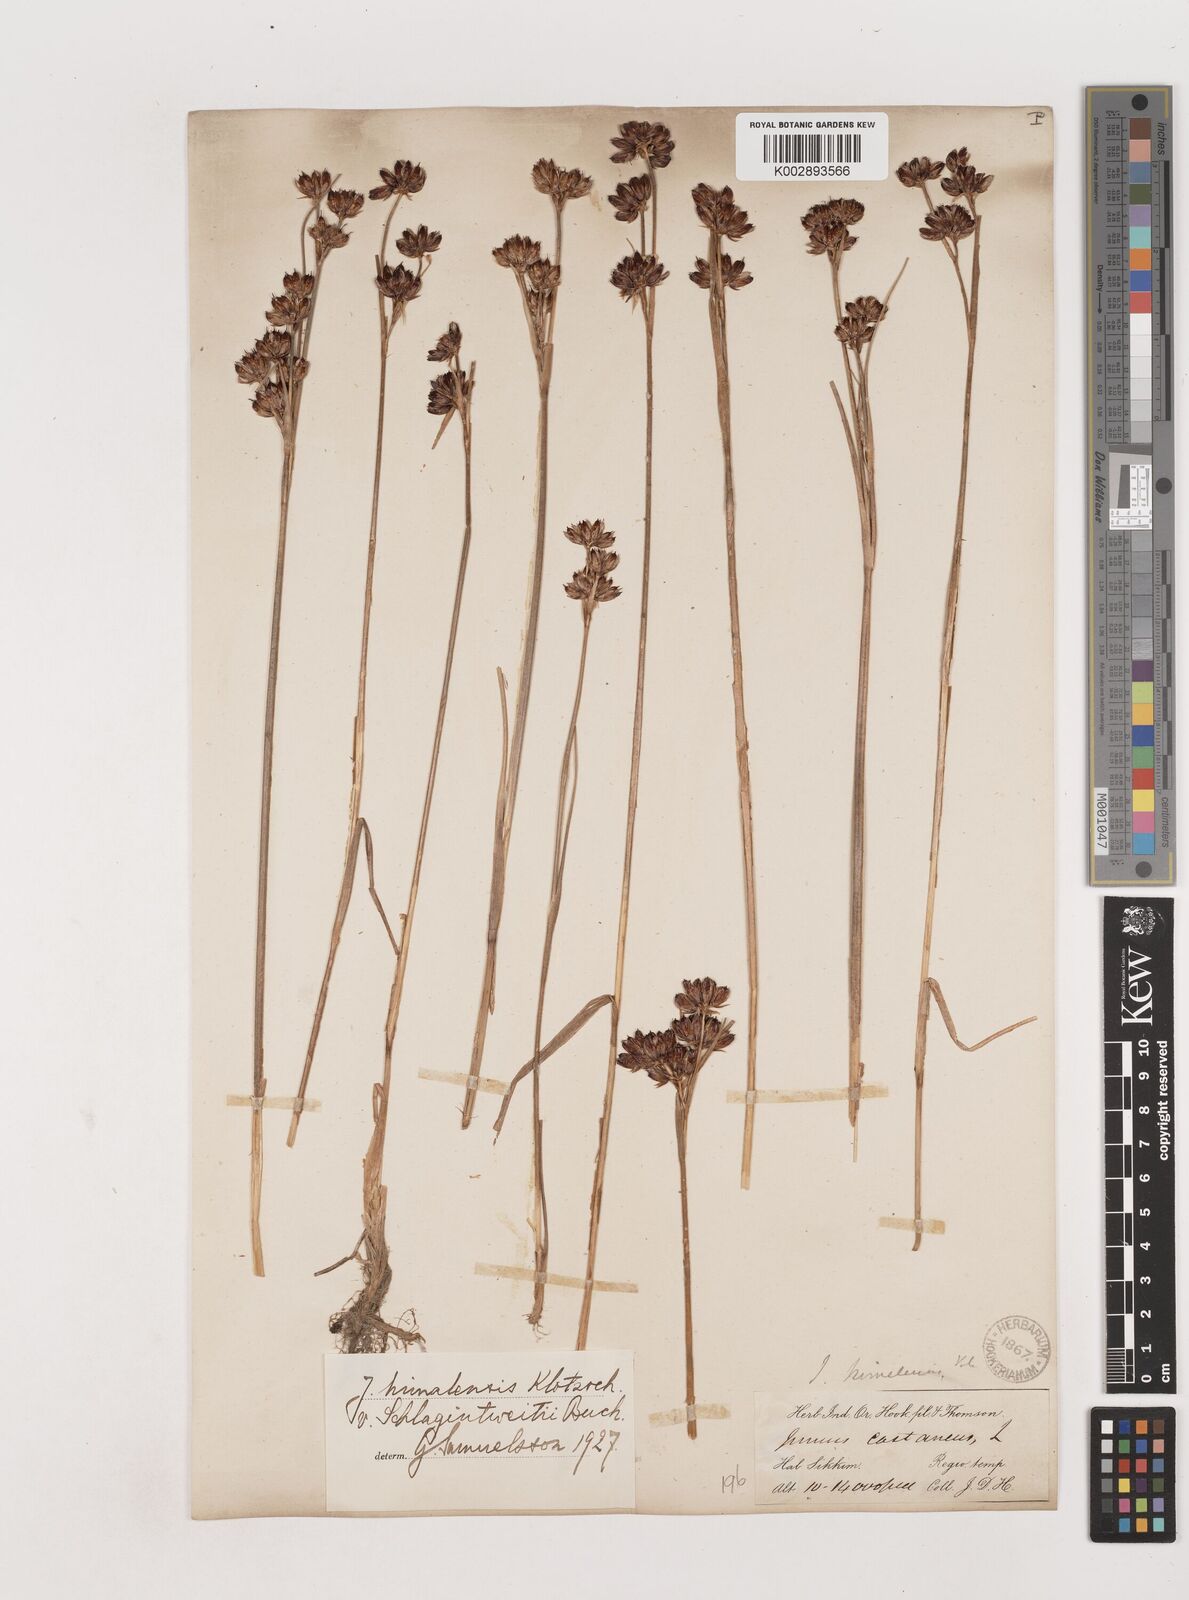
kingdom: Plantae
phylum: Tracheophyta
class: Liliopsida
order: Poales
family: Juncaceae
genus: Juncus
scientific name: Juncus himalensis
